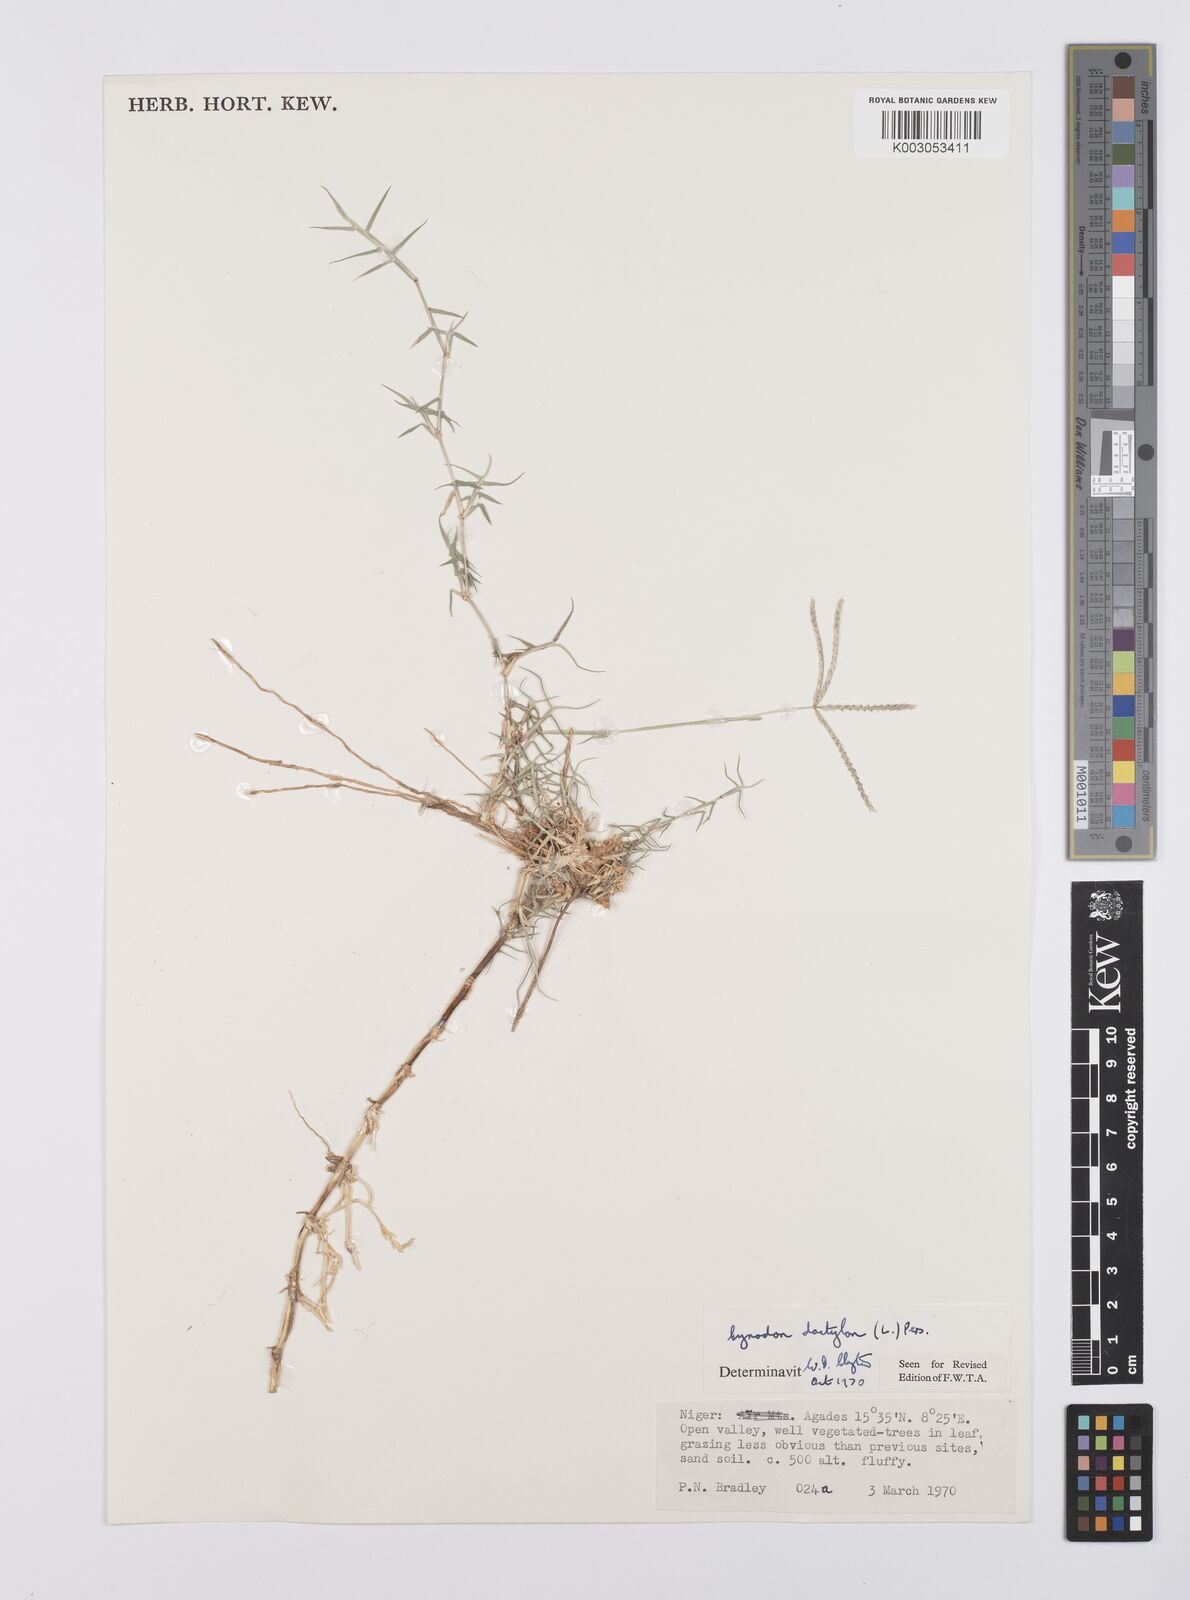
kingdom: Plantae
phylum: Tracheophyta
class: Liliopsida
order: Poales
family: Poaceae
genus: Cynodon
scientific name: Cynodon dactylon
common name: Bermuda grass
